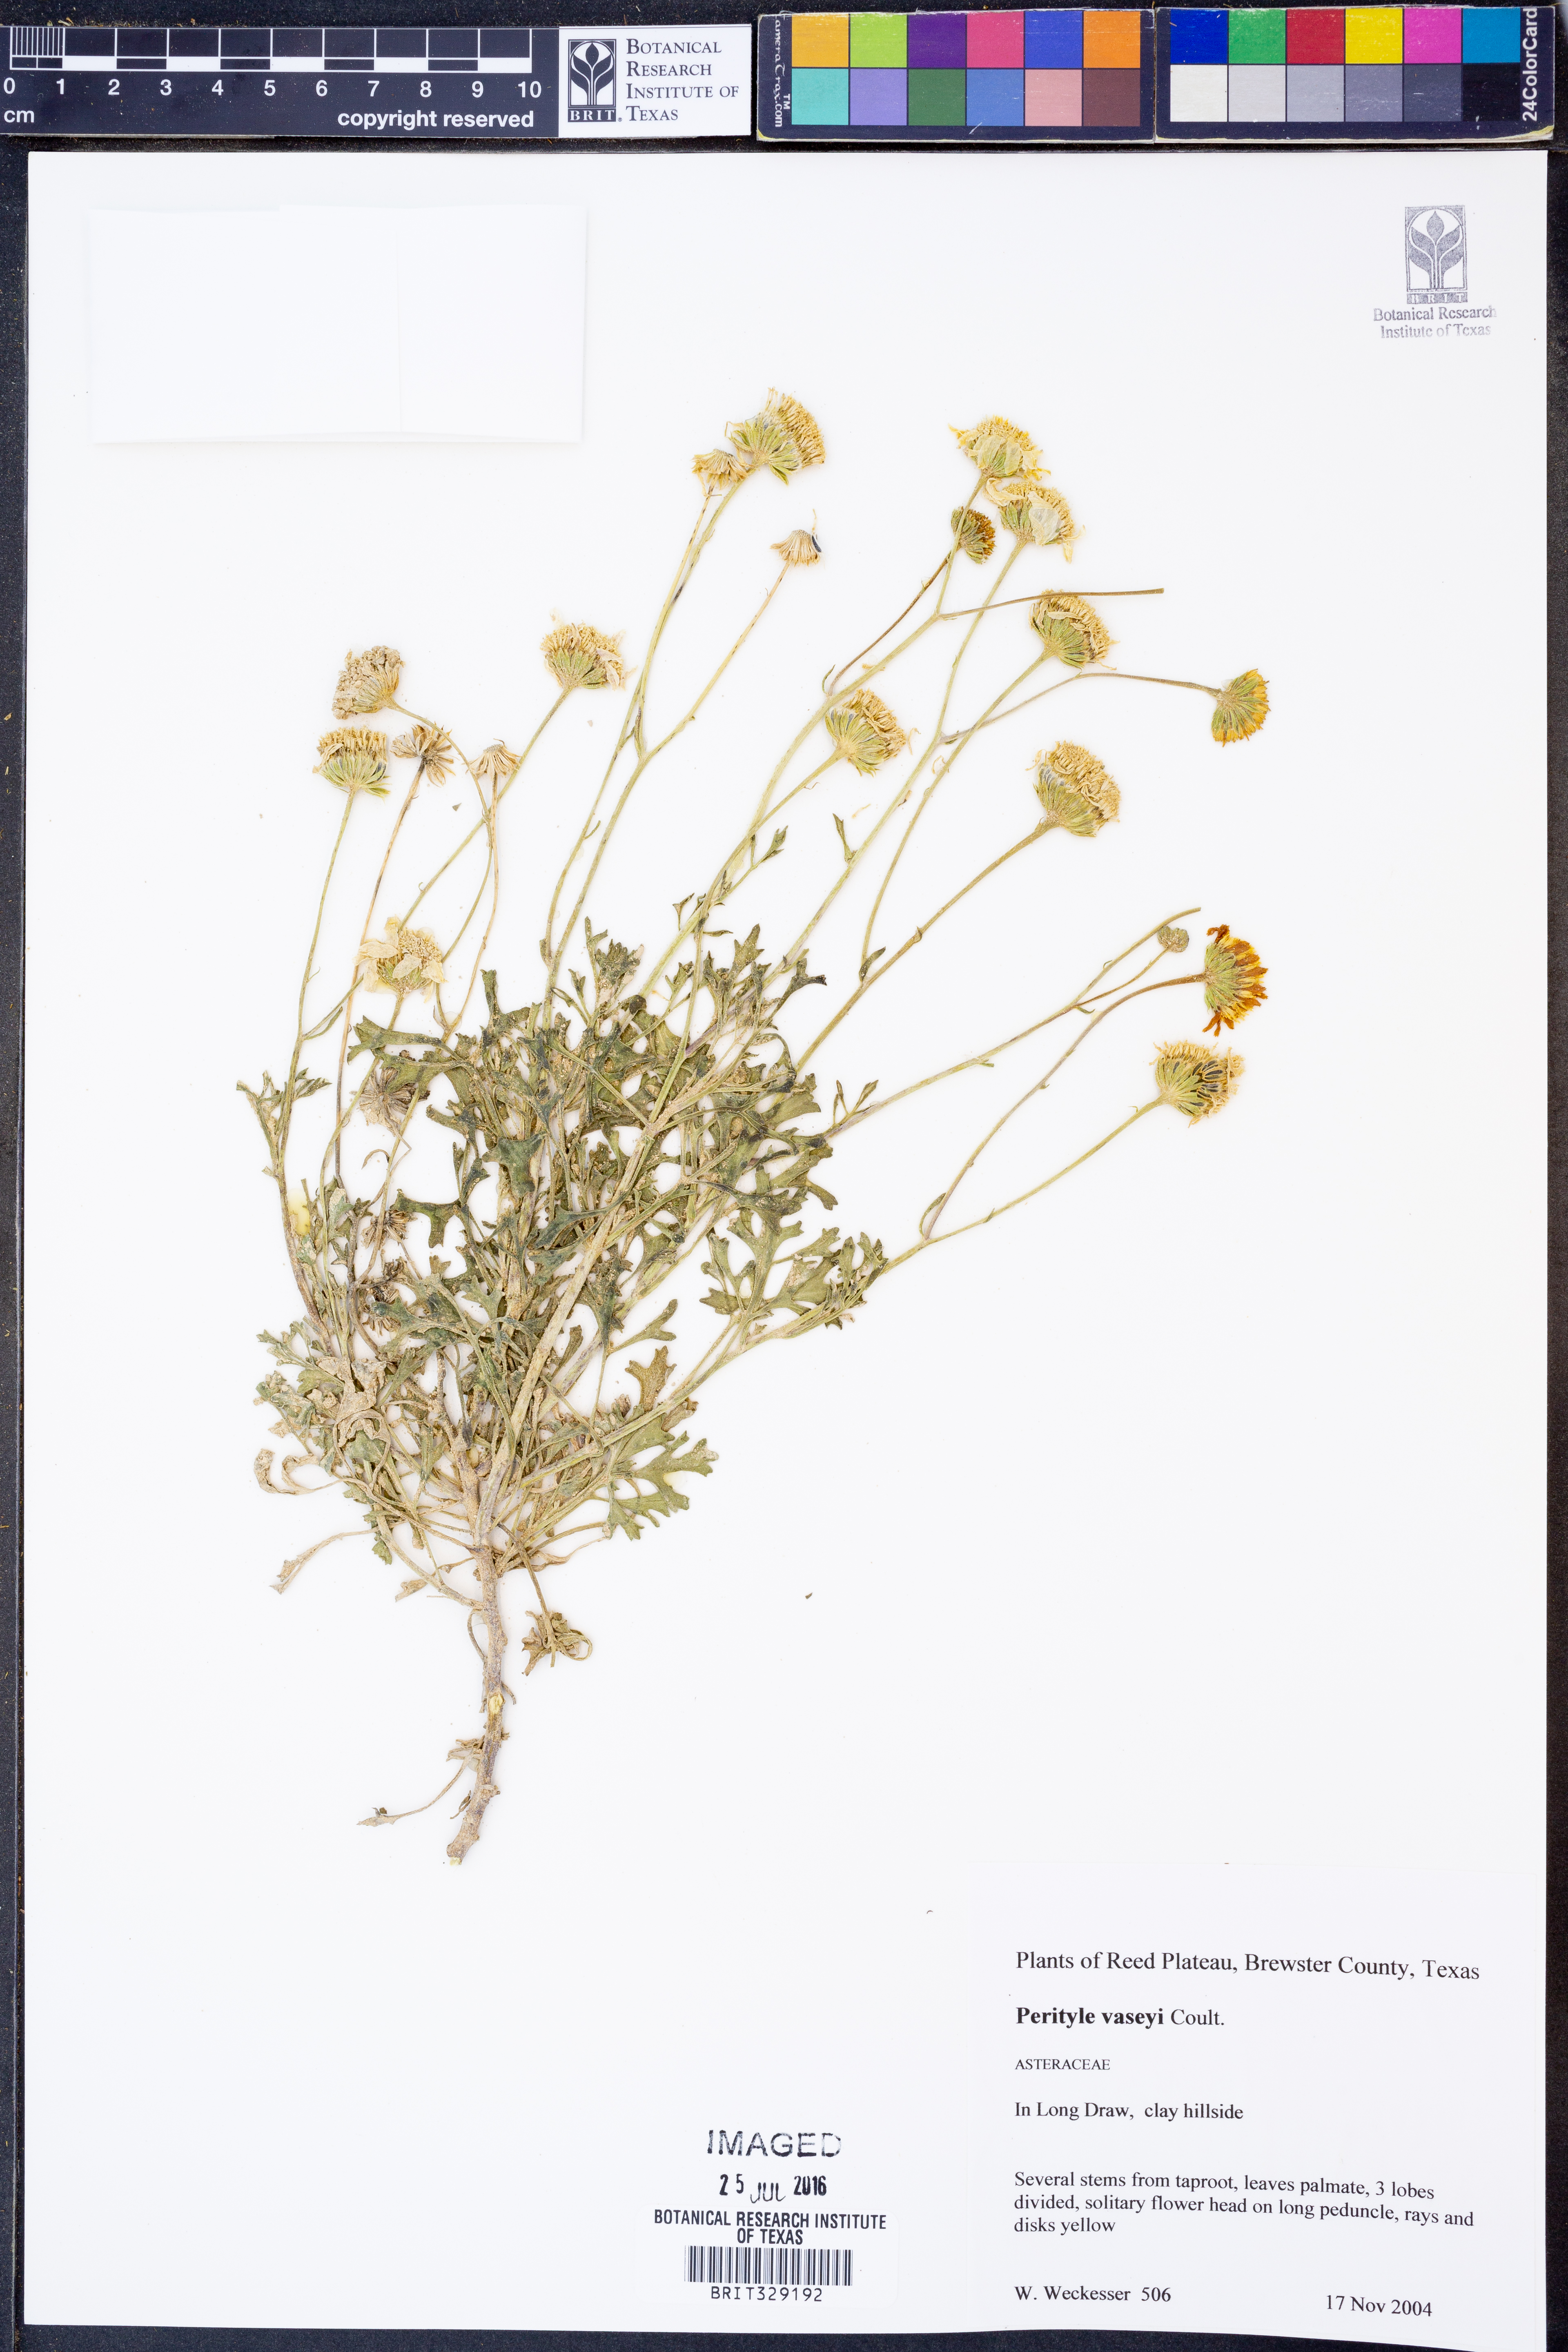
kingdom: Plantae
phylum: Tracheophyta
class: Magnoliopsida
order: Asterales
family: Asteraceae
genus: Laphamia
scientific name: Laphamia vaseyi
